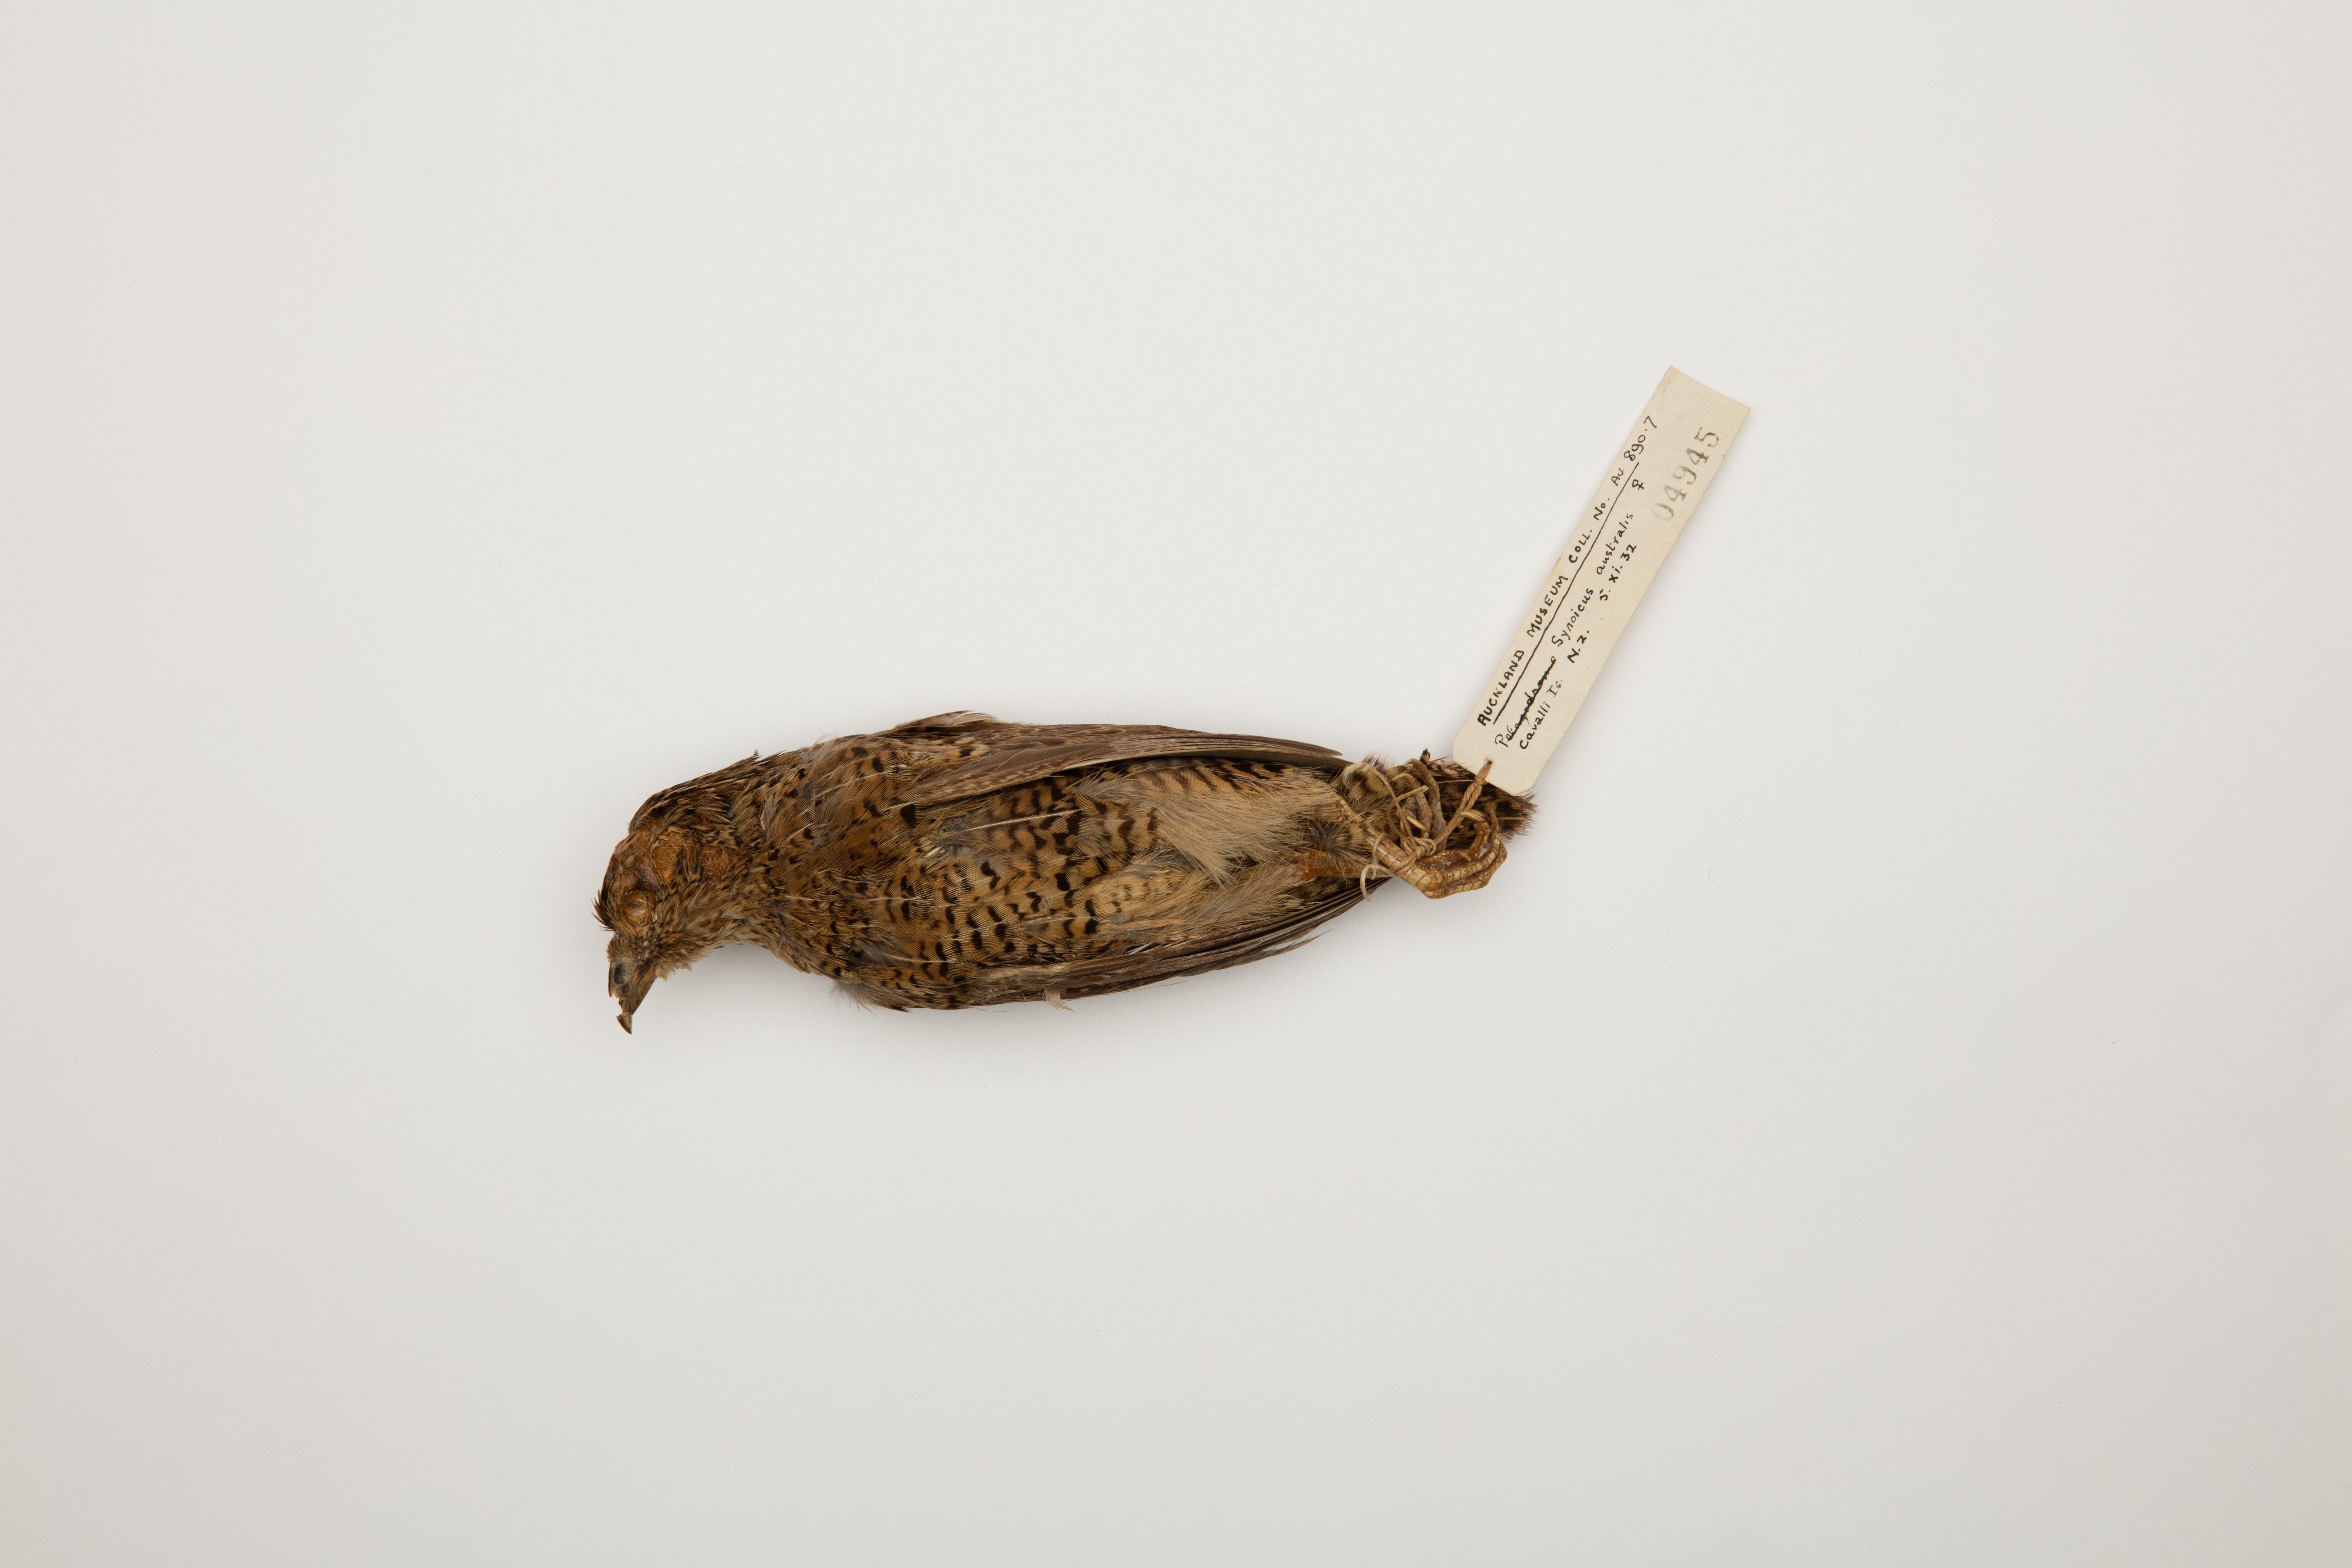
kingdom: Animalia
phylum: Chordata
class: Aves
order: Galliformes
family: Phasianidae
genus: Synoicus
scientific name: Synoicus ypsilophorus
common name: Brown quail
